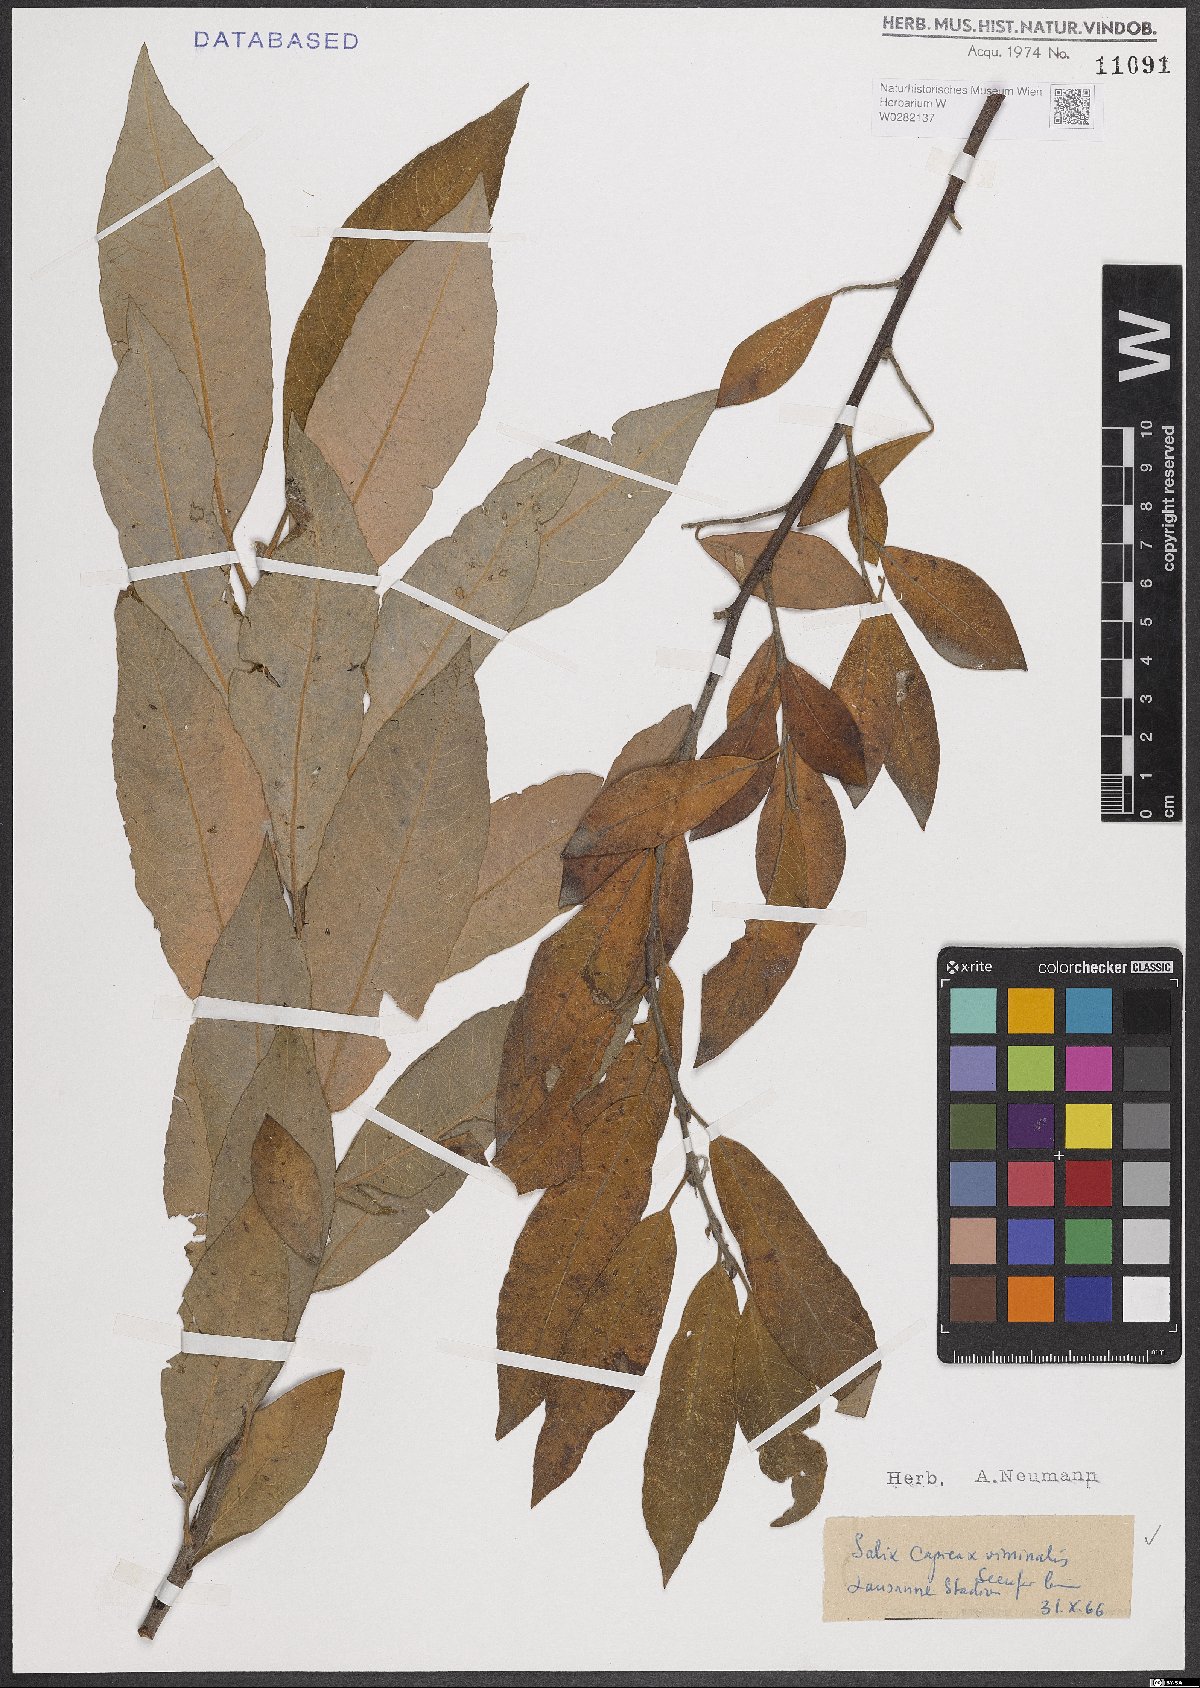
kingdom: Plantae
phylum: Tracheophyta
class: Magnoliopsida
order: Malpighiales
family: Salicaceae
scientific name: Salicaceae
